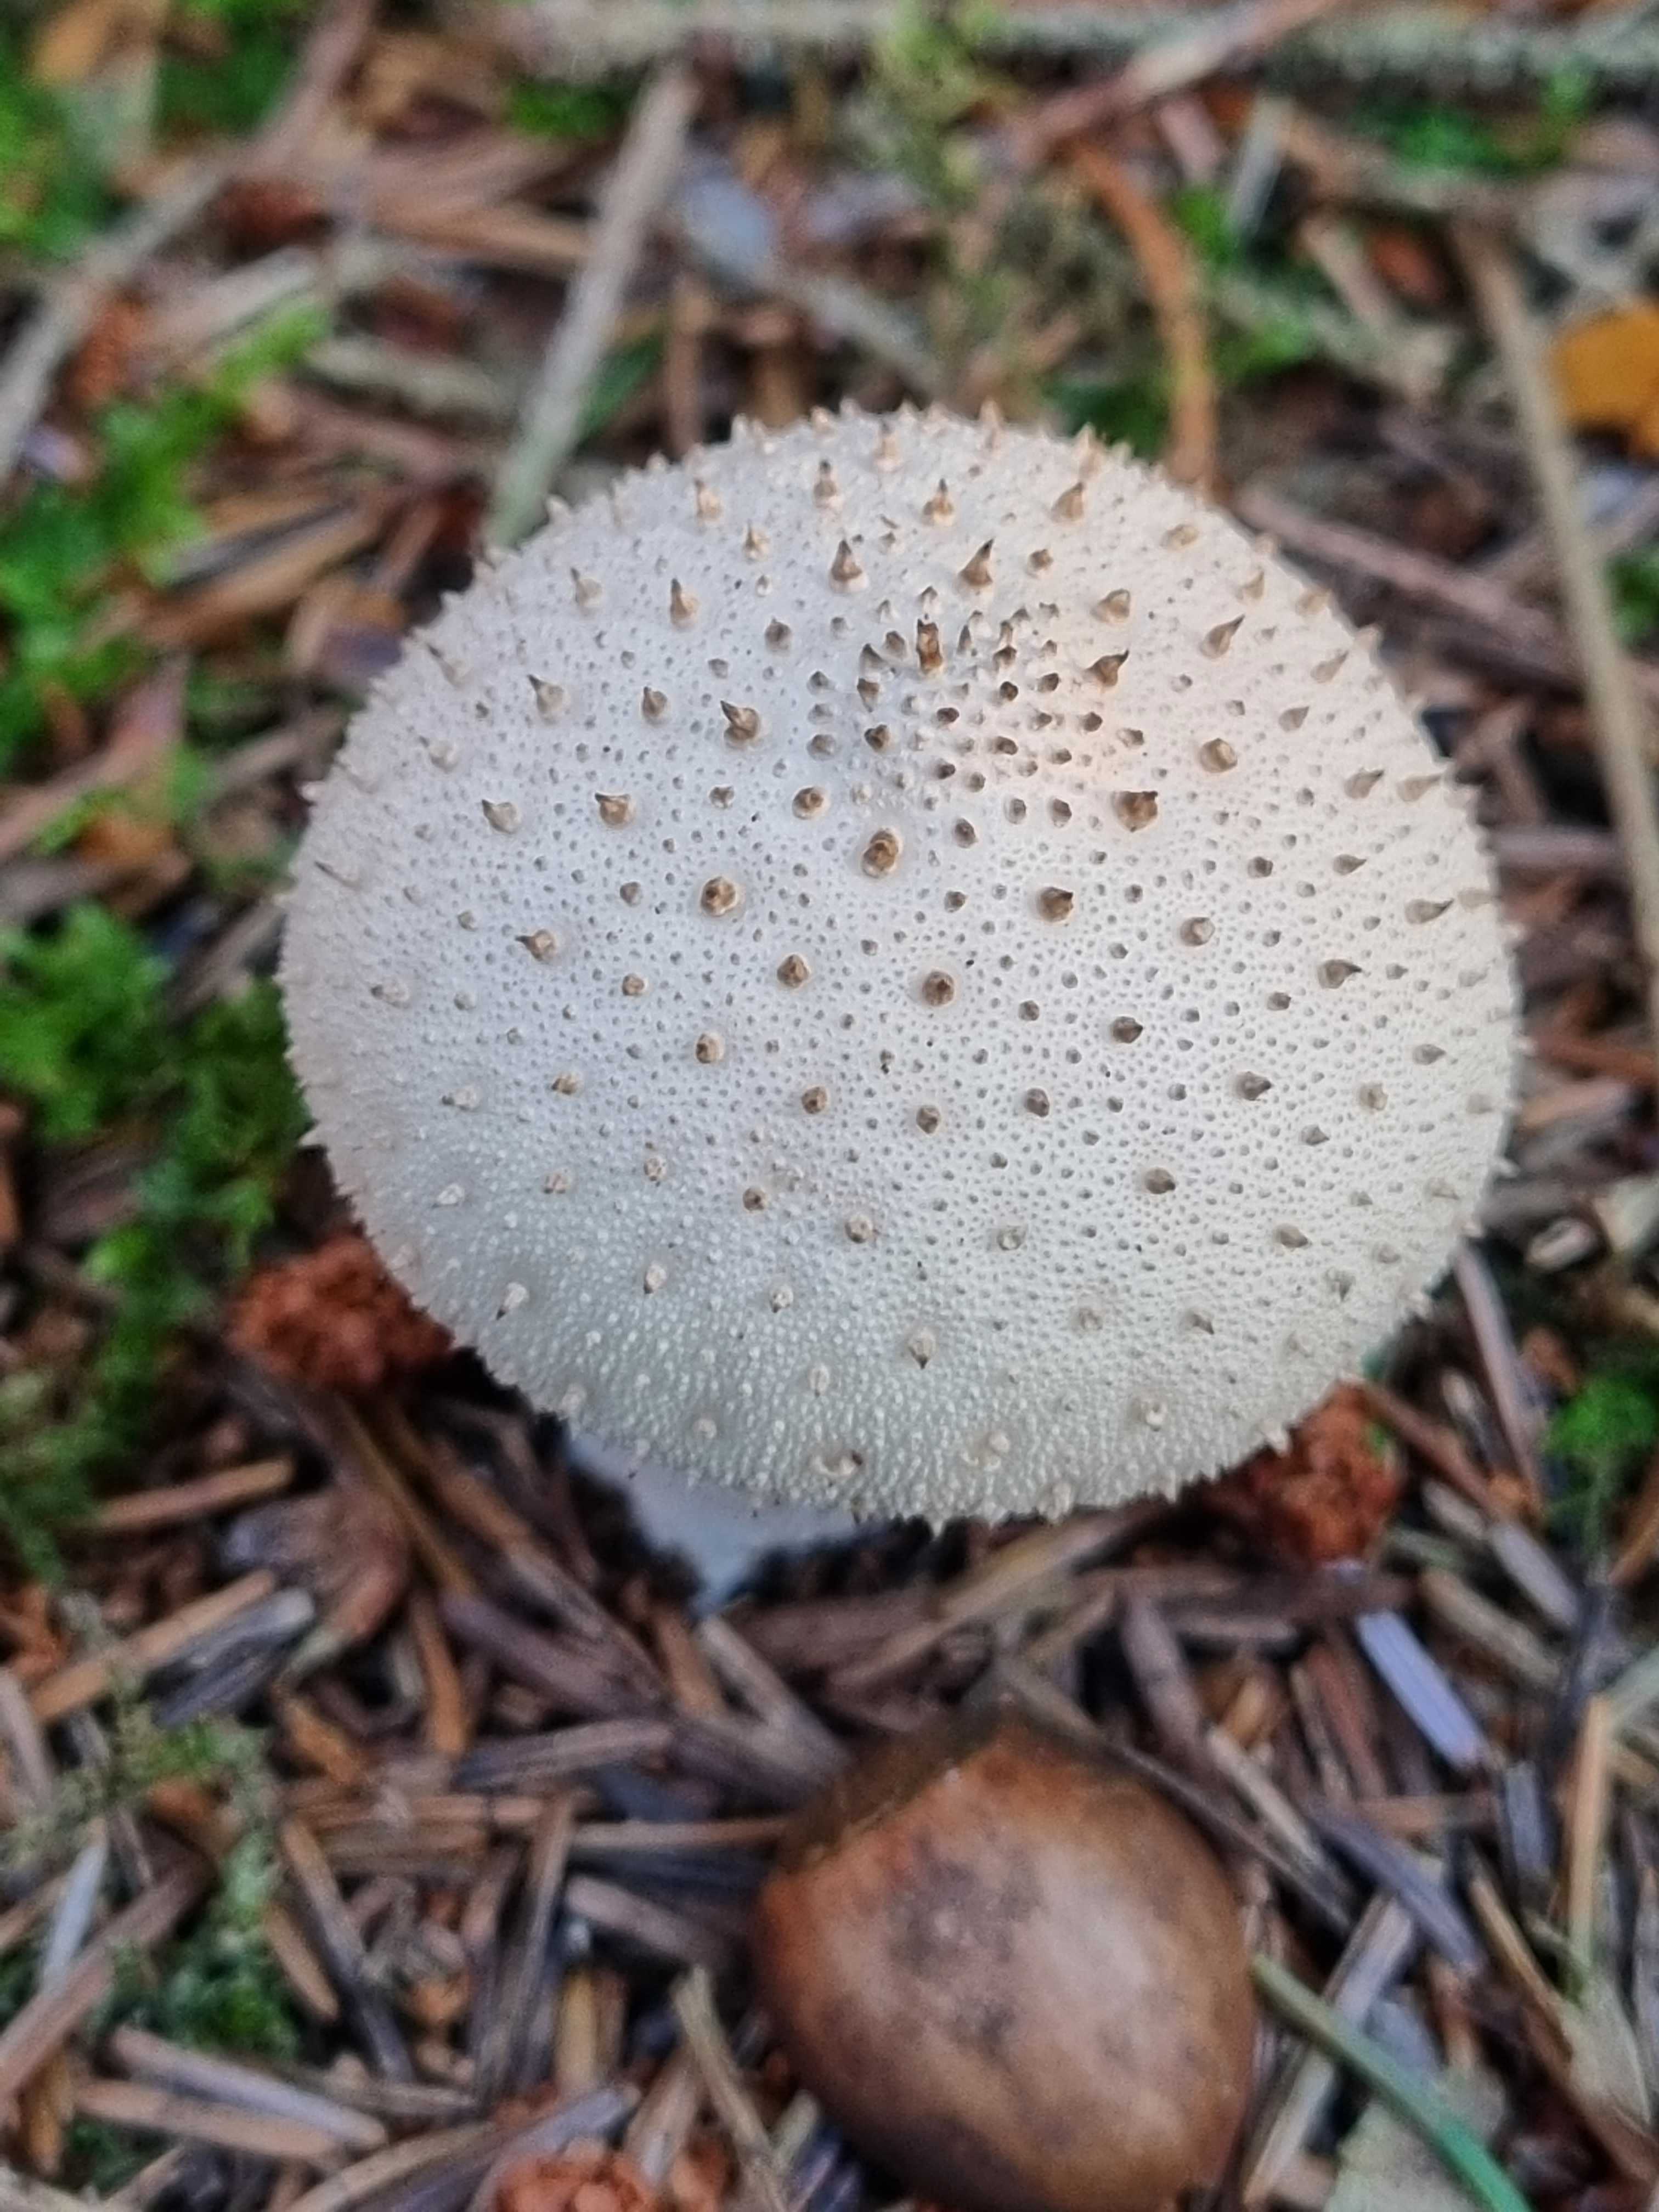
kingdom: Fungi
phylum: Basidiomycota
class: Agaricomycetes
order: Agaricales
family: Lycoperdaceae
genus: Lycoperdon
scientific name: Lycoperdon perlatum
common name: krystal-støvbold
